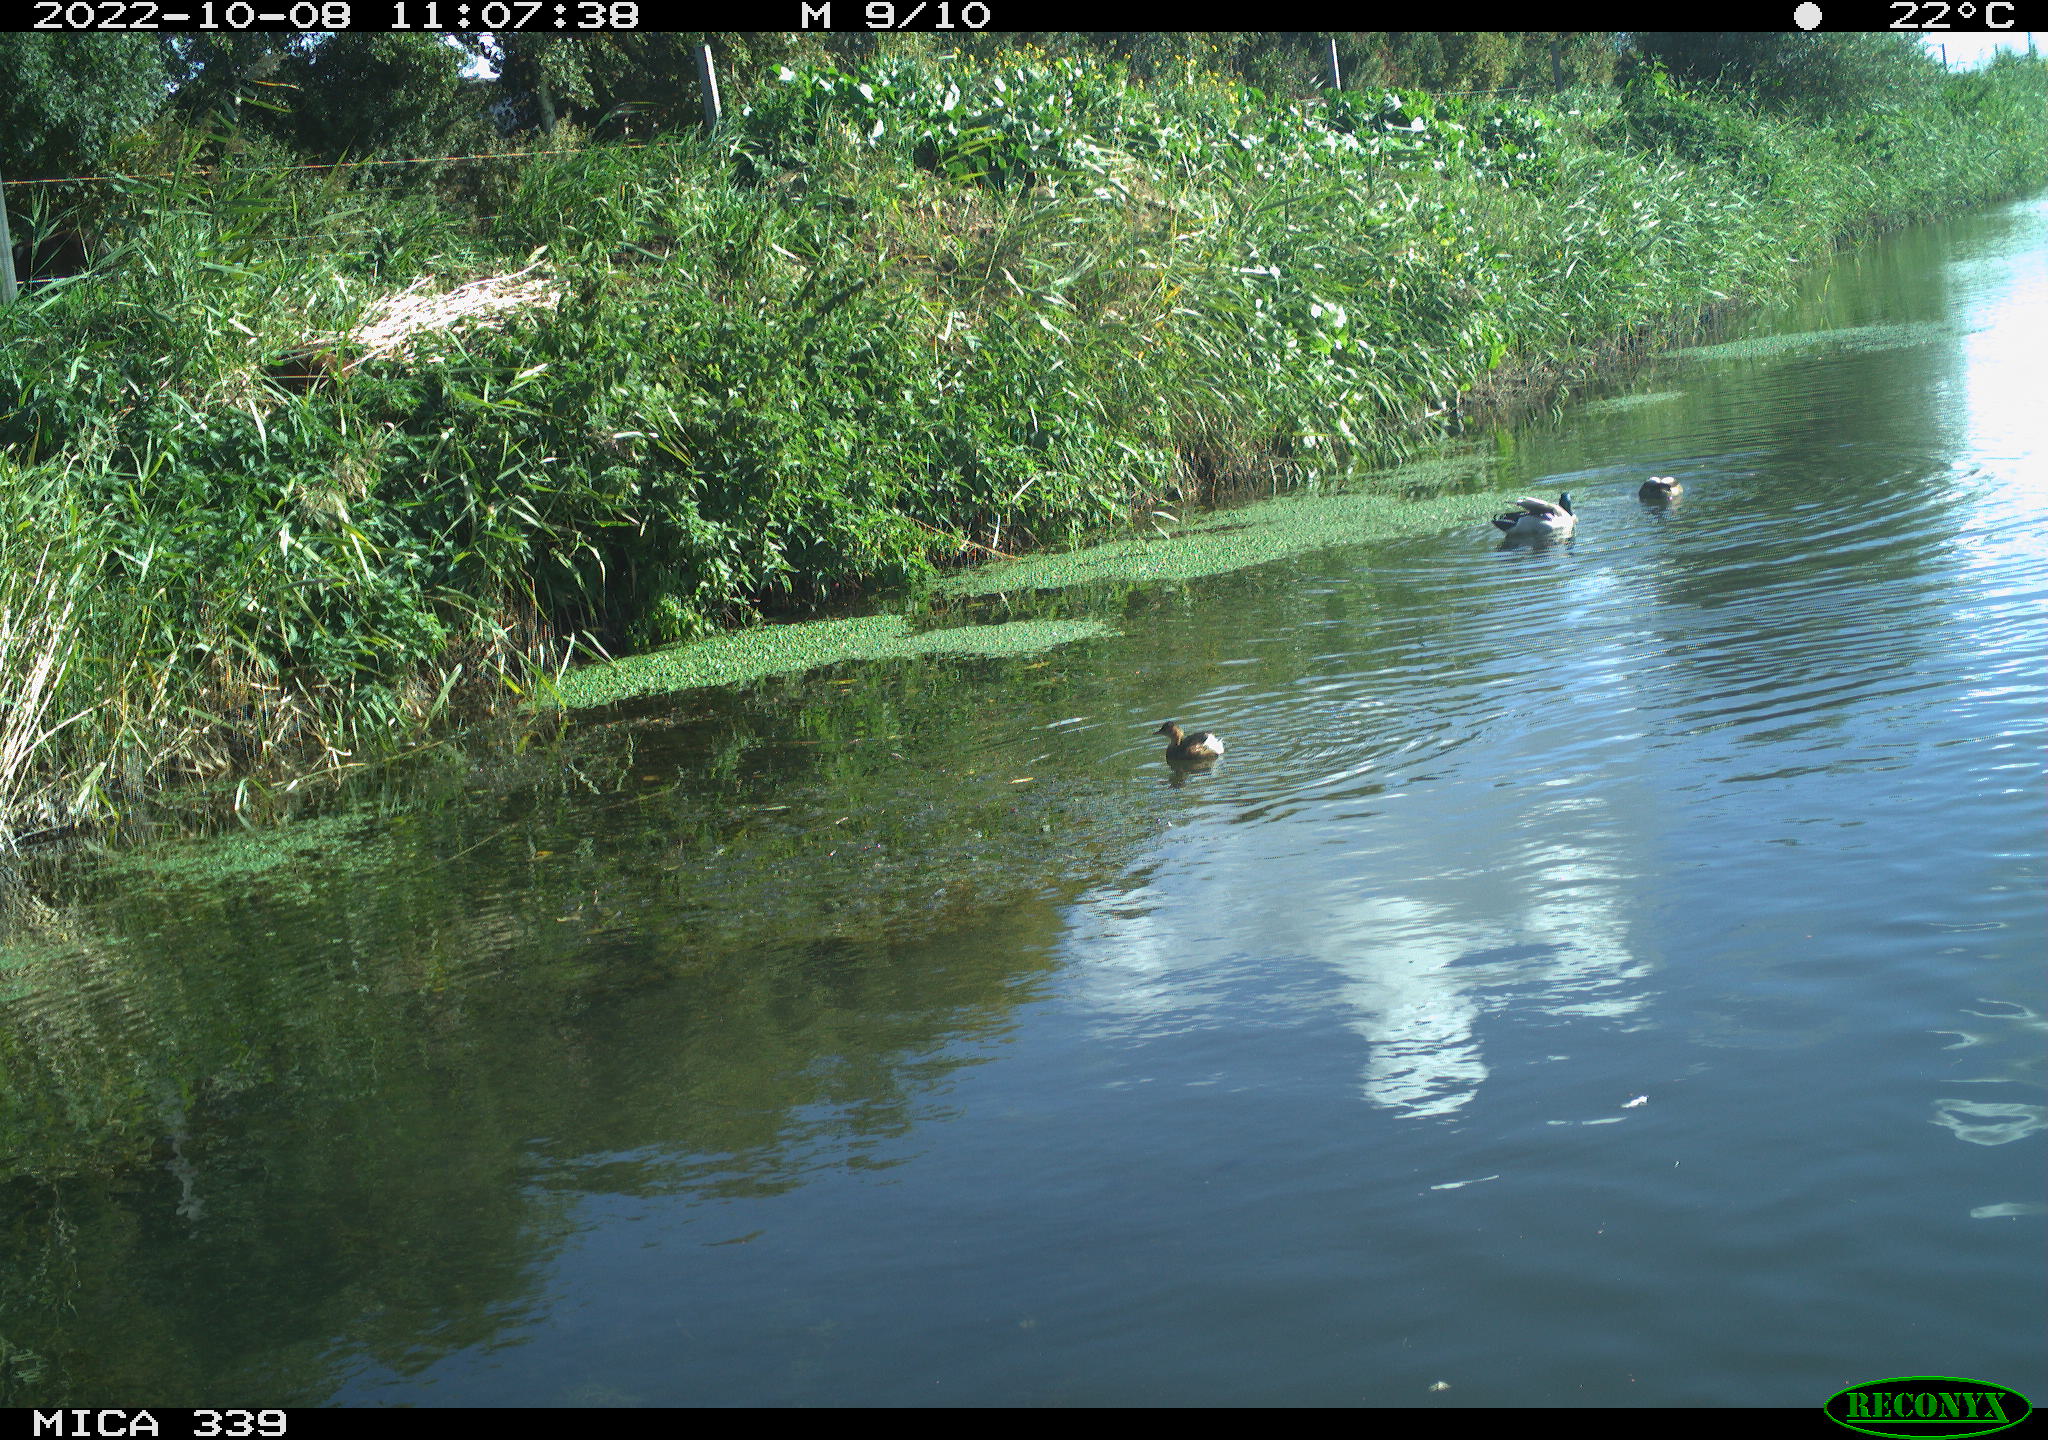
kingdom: Animalia
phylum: Chordata
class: Aves
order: Podicipediformes
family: Podicipedidae
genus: Tachybaptus
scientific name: Tachybaptus ruficollis
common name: Little grebe
